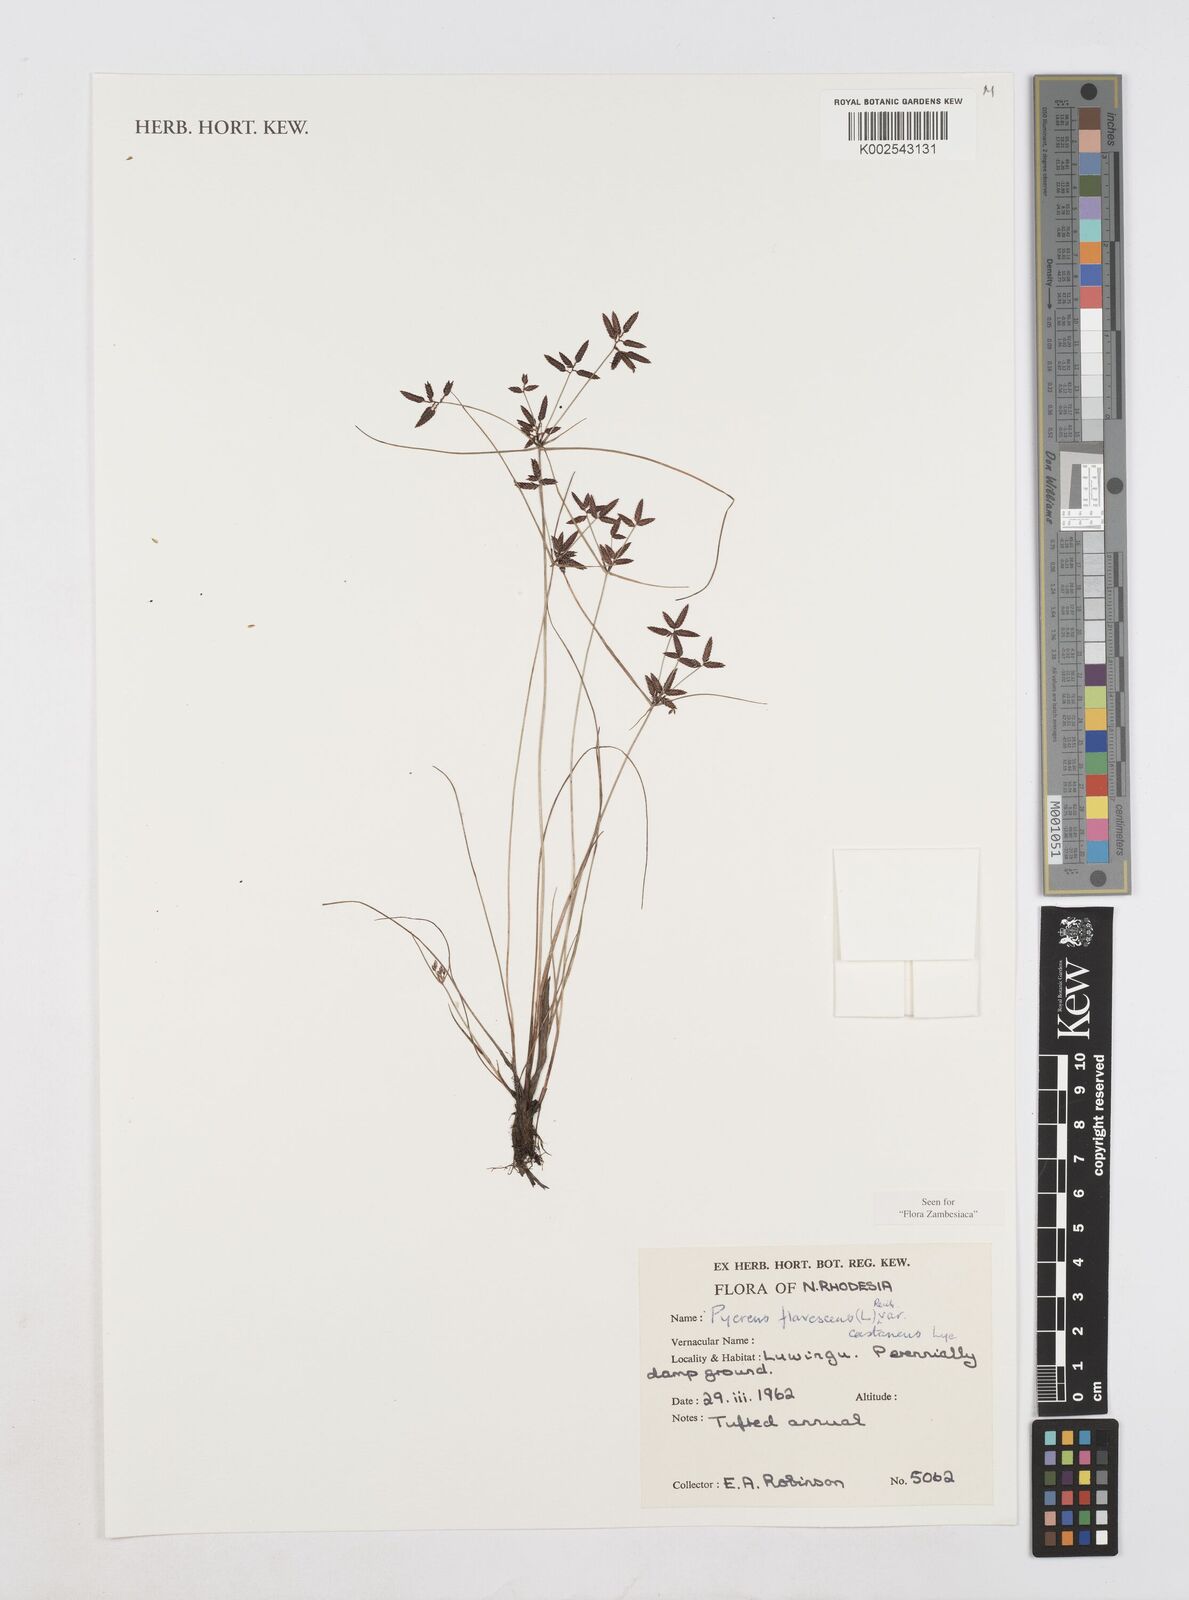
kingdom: Plantae
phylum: Tracheophyta
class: Liliopsida
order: Poales
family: Cyperaceae
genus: Cyperus
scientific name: Cyperus flavescens
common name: Yellow galingale
